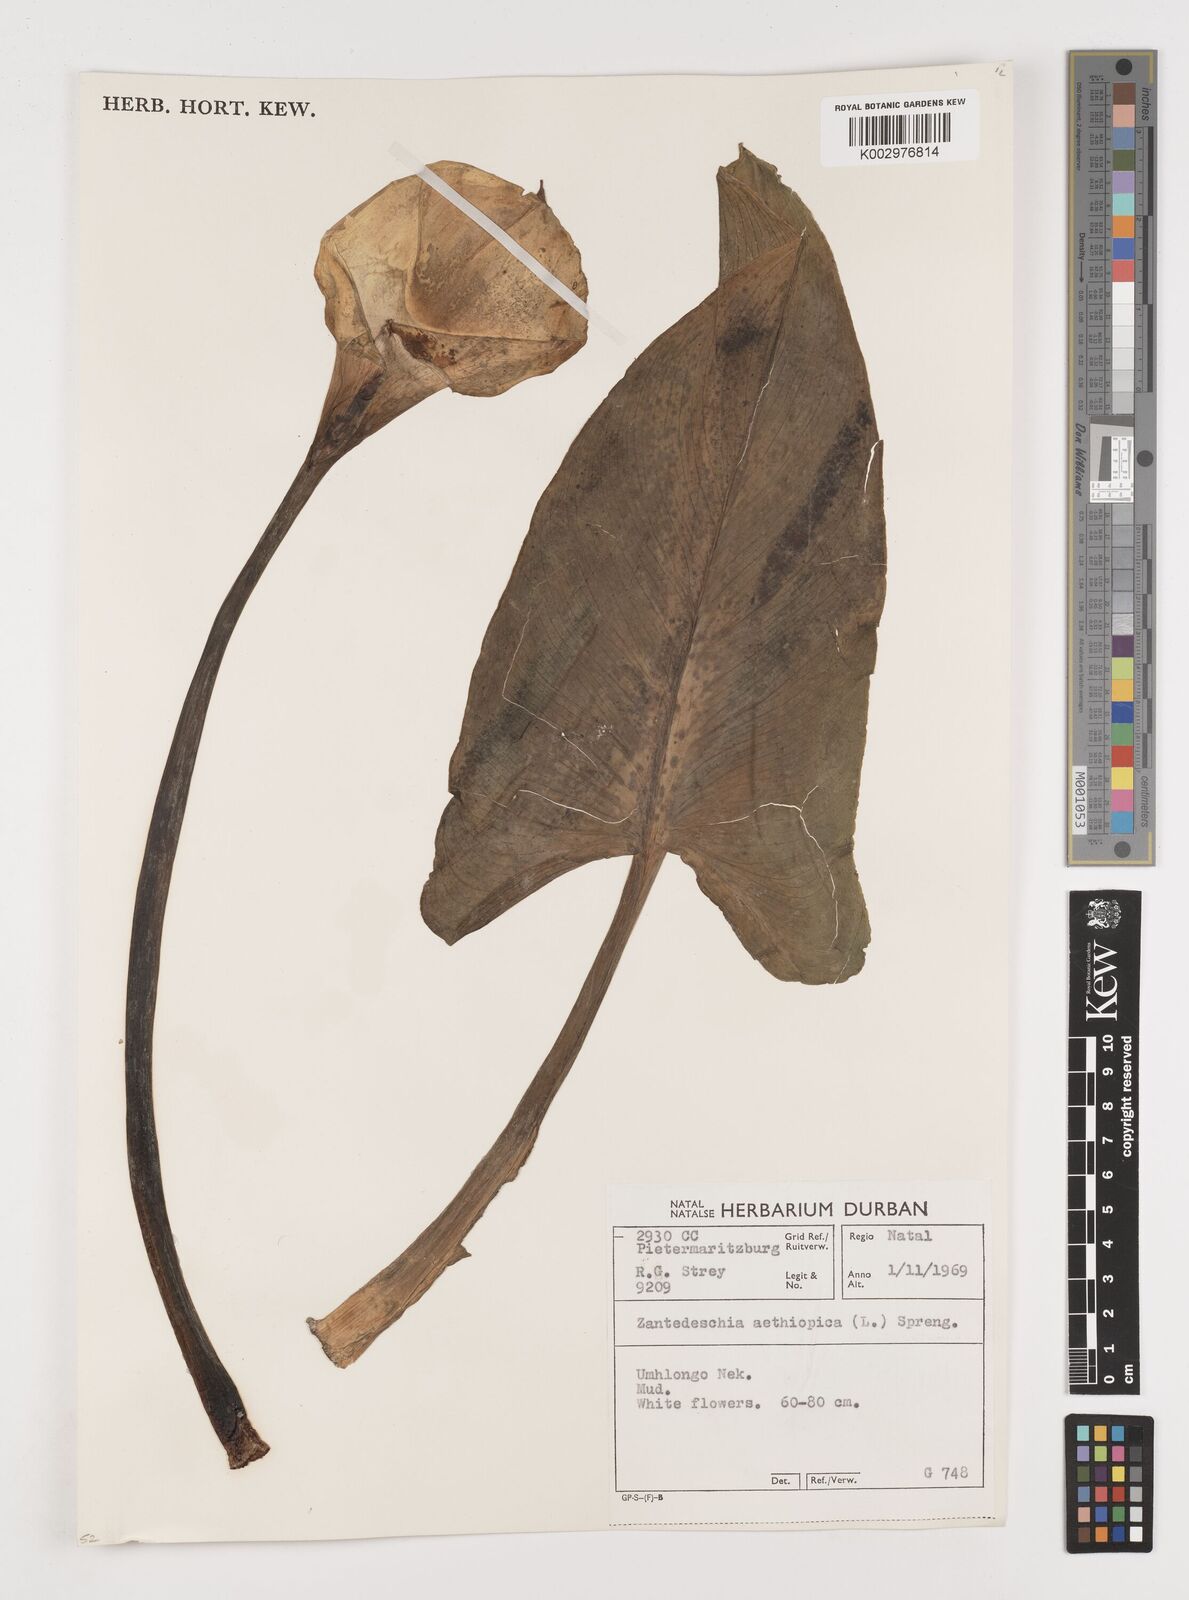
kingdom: Plantae
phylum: Tracheophyta
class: Liliopsida
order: Alismatales
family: Araceae
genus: Zantedeschia
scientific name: Zantedeschia aethiopica
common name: Altar-lily
